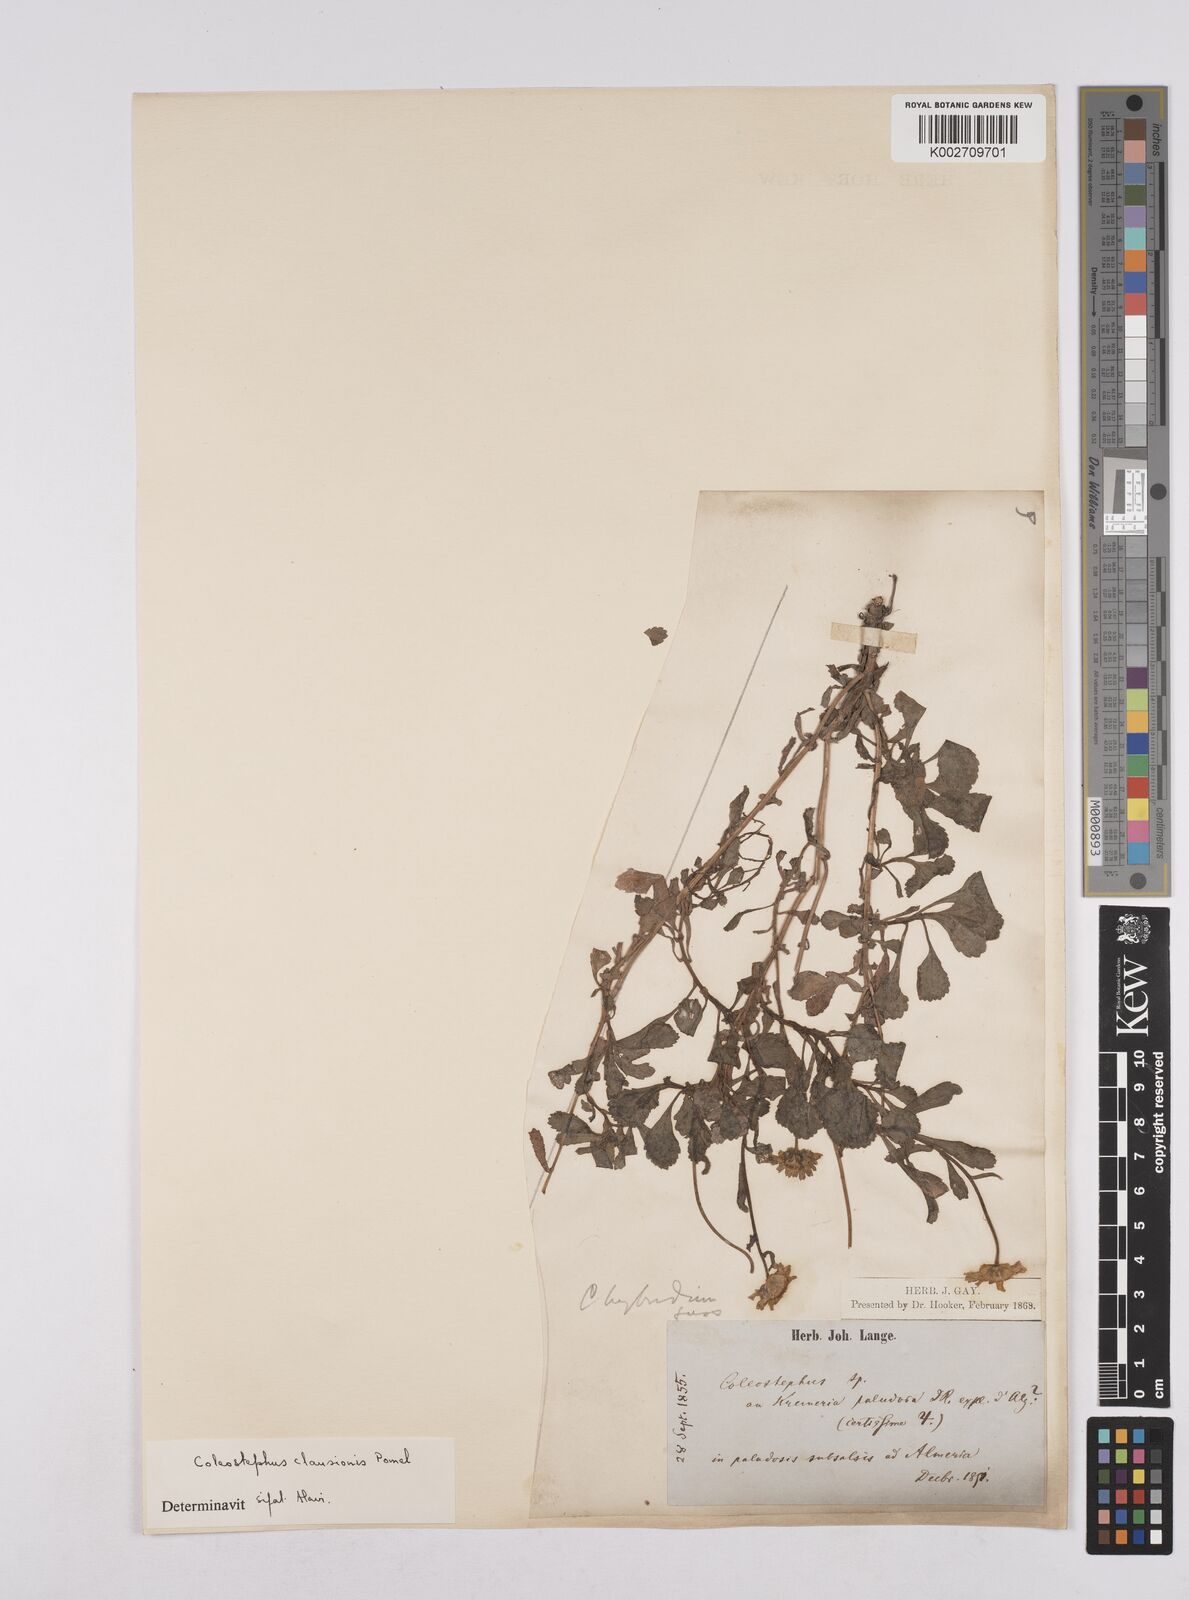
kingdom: Plantae
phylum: Tracheophyta
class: Magnoliopsida
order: Asterales
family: Asteraceae
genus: Coleostephus
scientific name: Coleostephus paludosus
